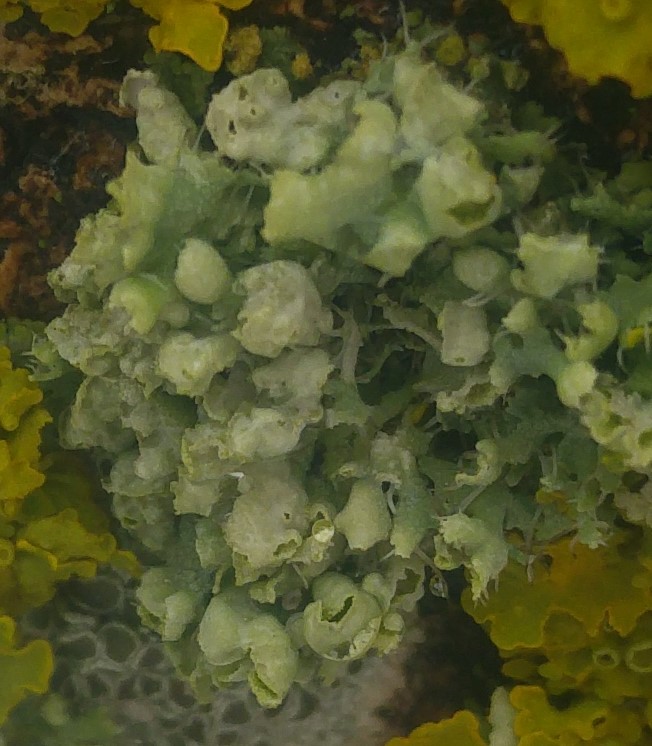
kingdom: Fungi
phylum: Ascomycota
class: Lecanoromycetes
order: Caliciales
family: Physciaceae
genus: Physcia
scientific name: Physcia adscendens
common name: hætte-rosetlav
